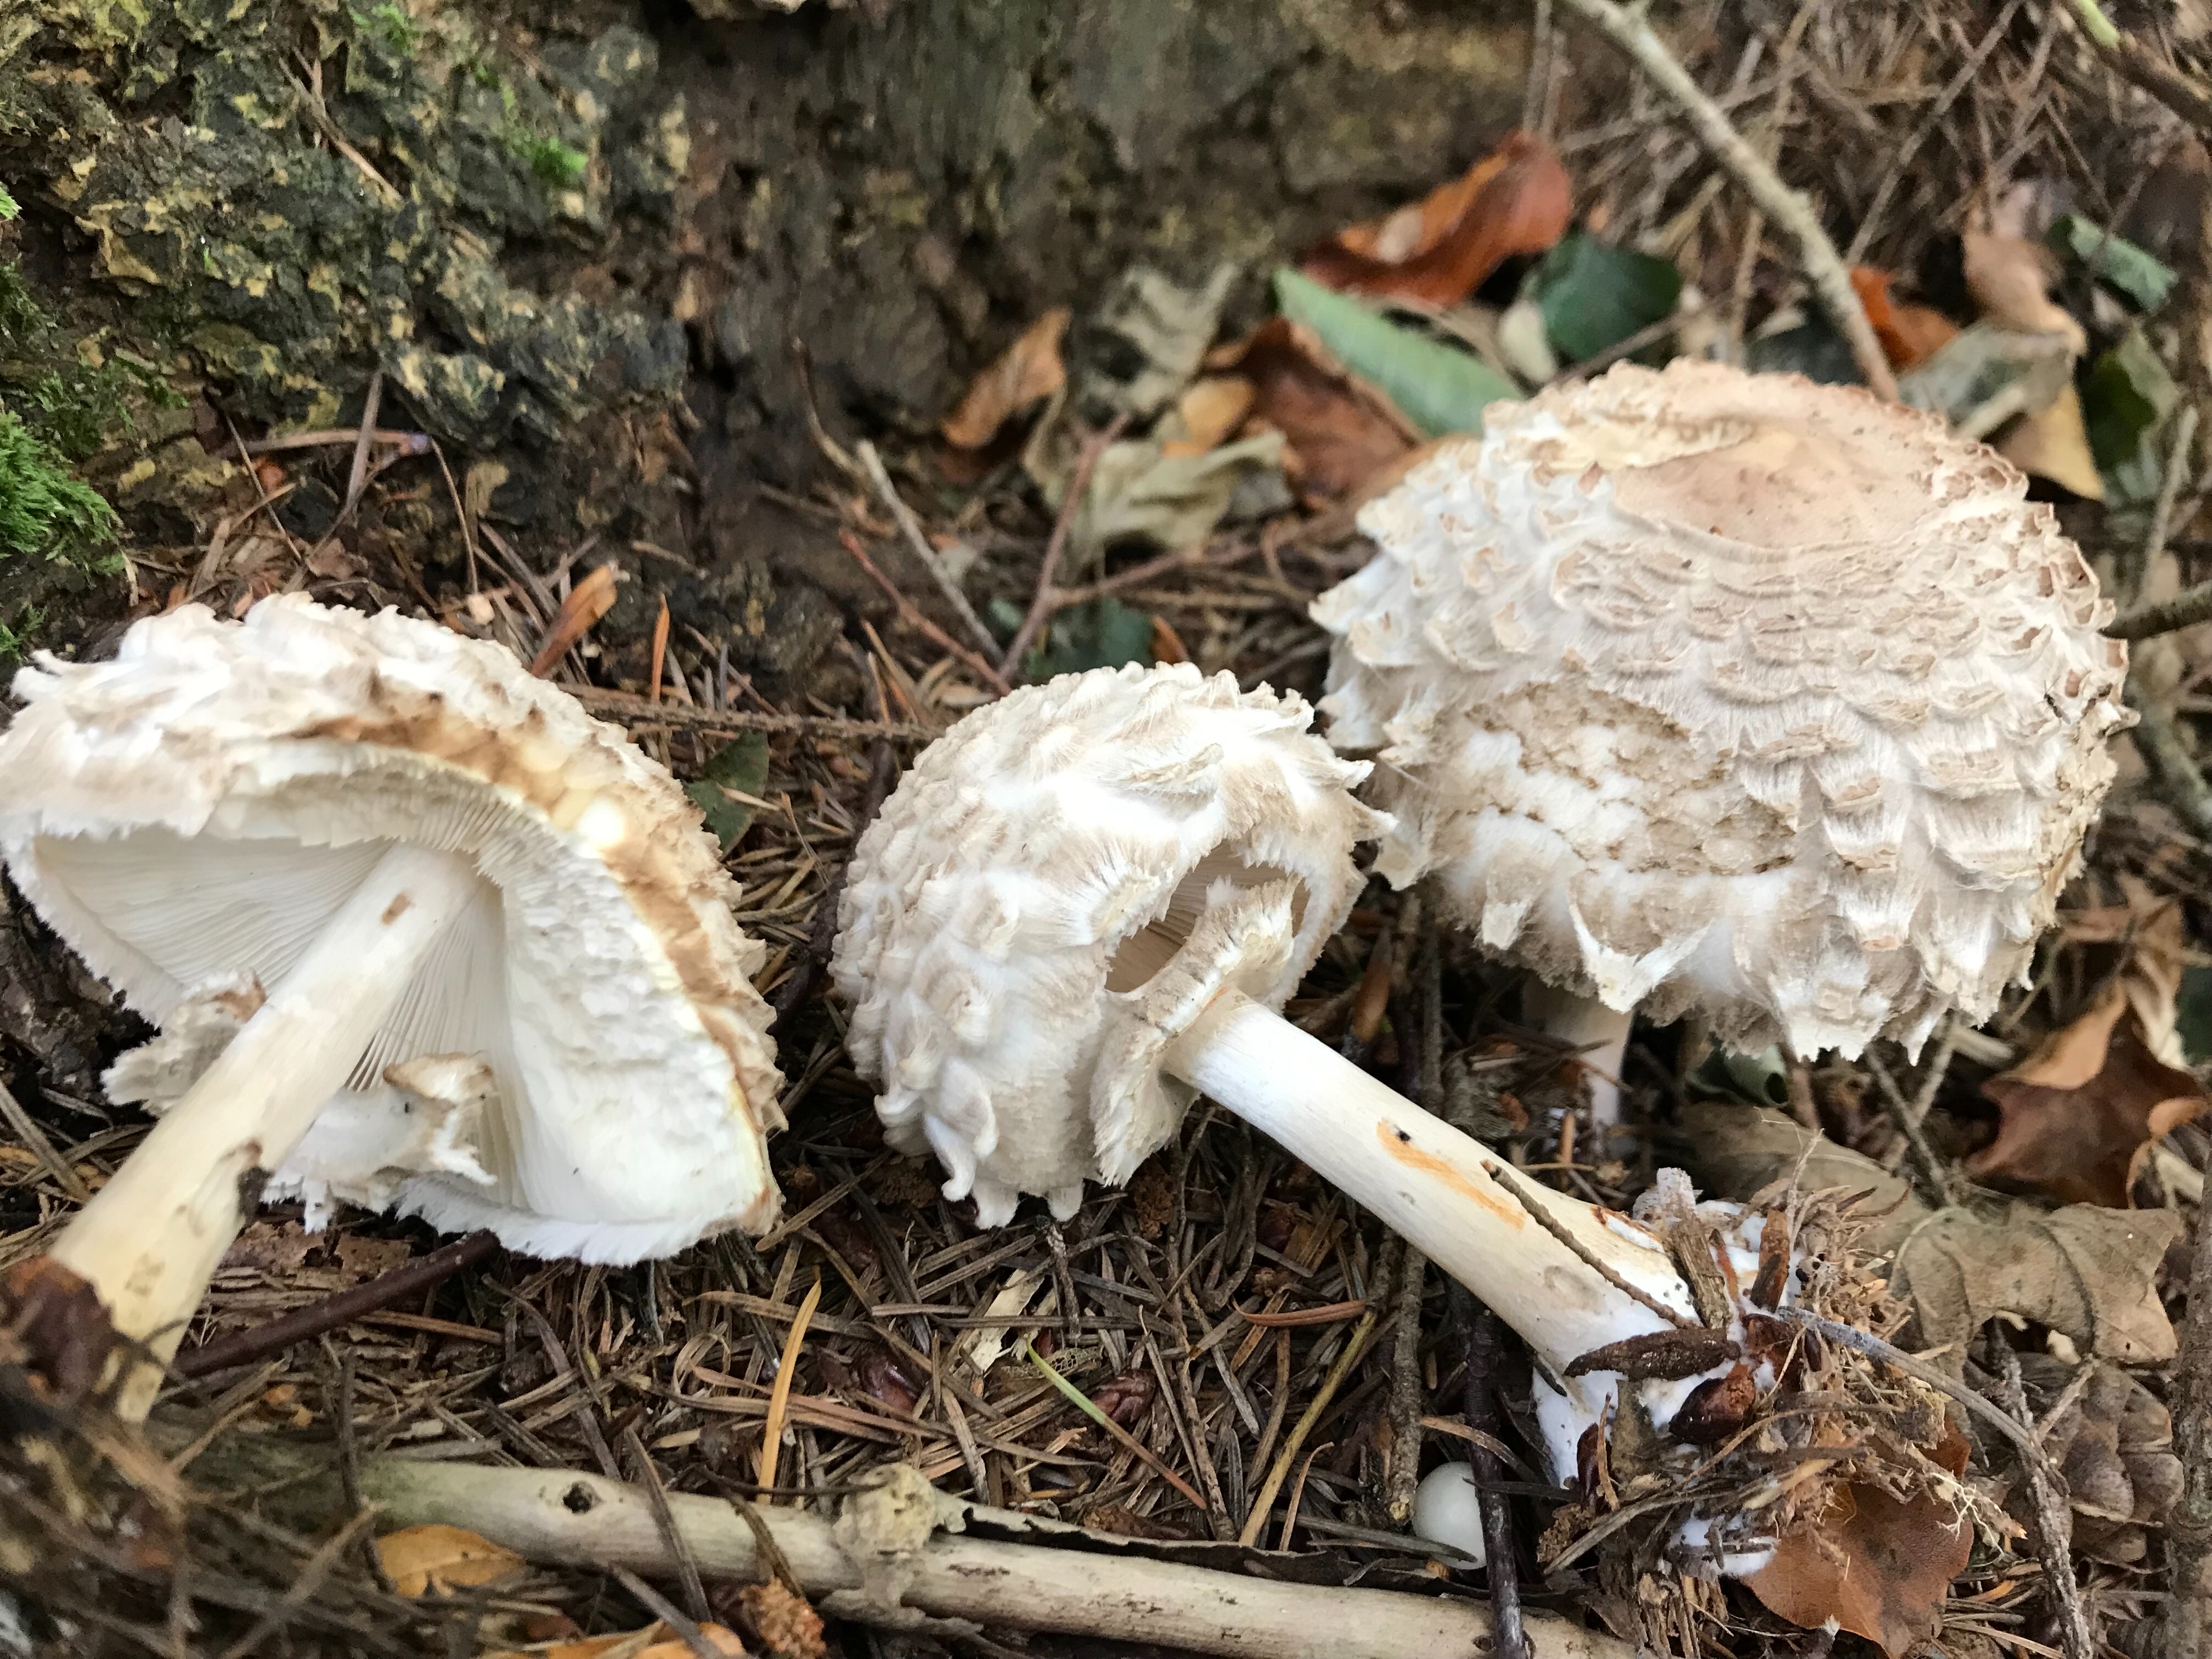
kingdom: Fungi
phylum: Basidiomycota
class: Agaricomycetes
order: Agaricales
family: Agaricaceae
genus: Chlorophyllum
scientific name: Chlorophyllum olivieri
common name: almindelig rabarberhat
